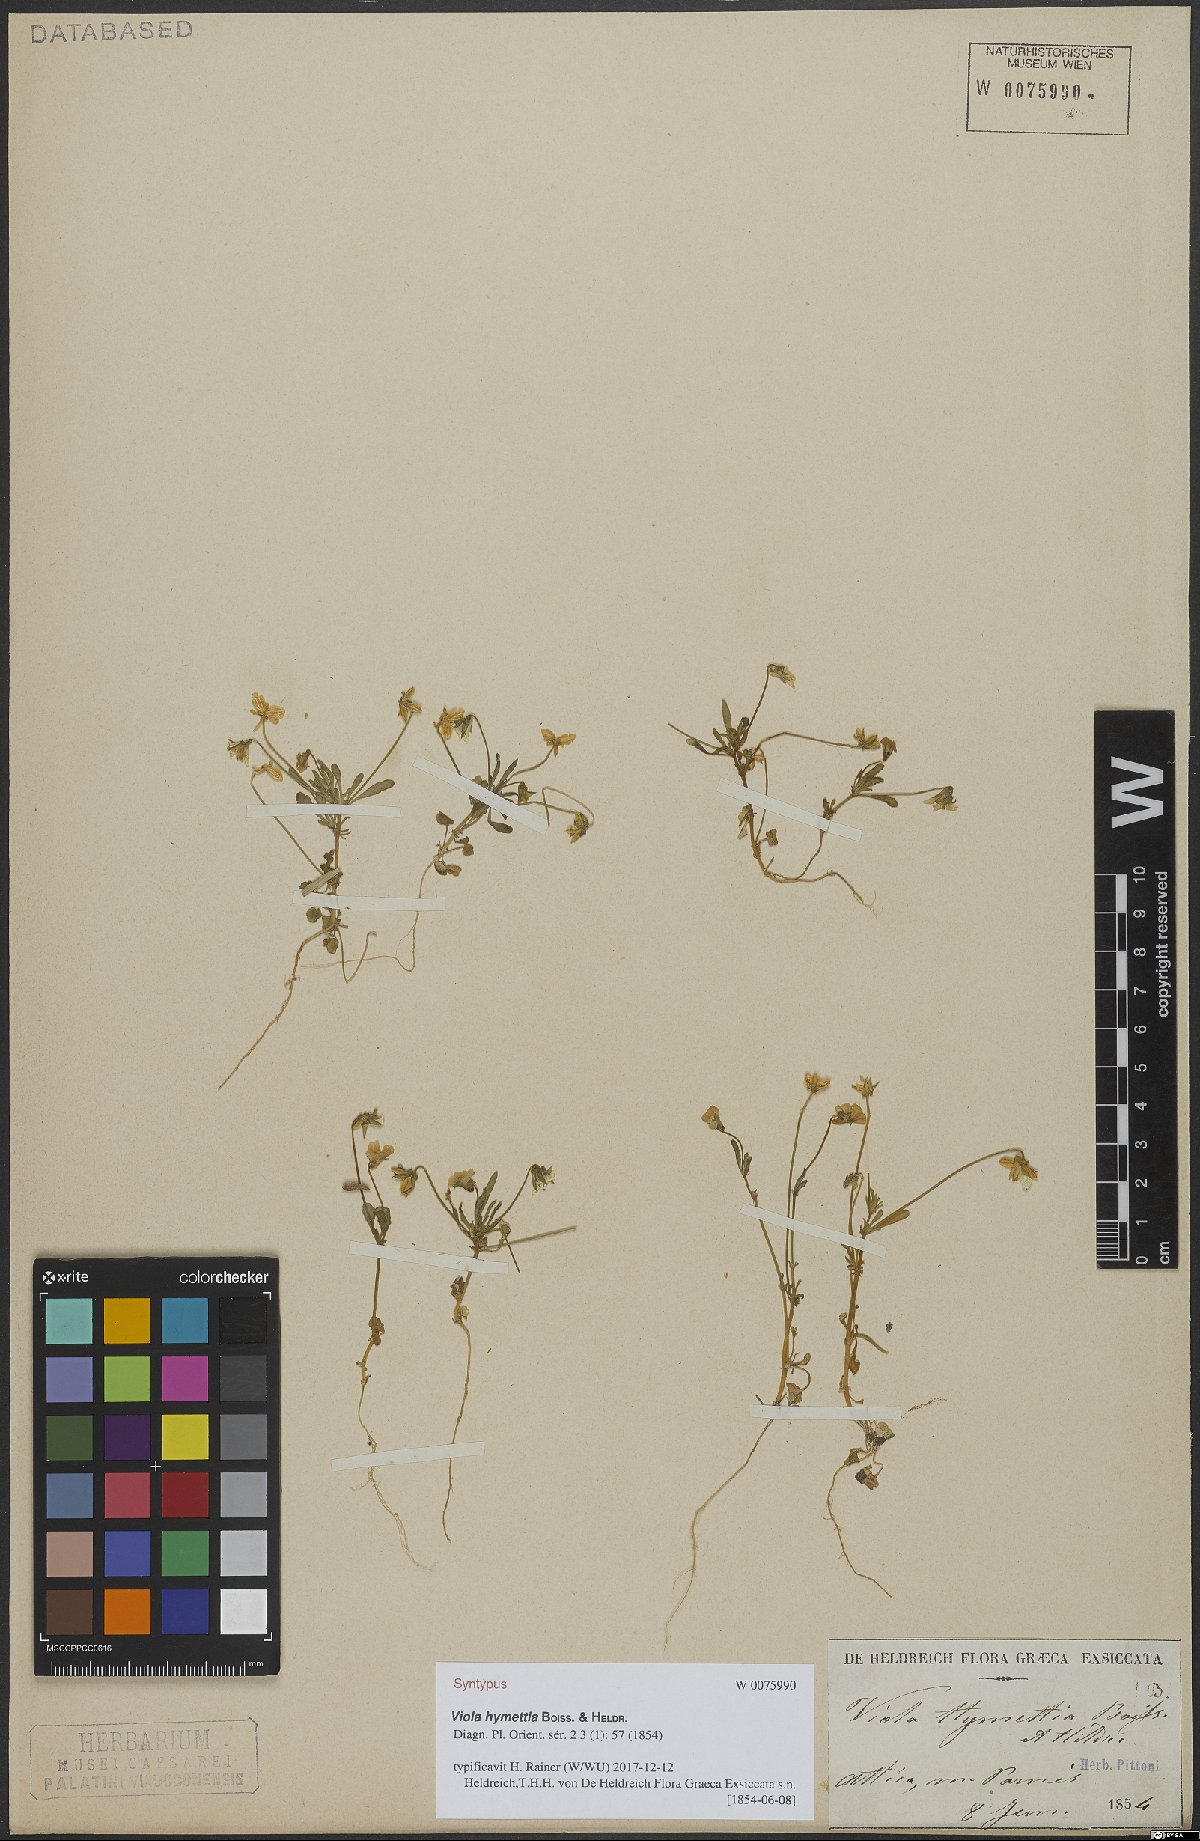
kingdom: Plantae
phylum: Tracheophyta
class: Magnoliopsida
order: Malpighiales
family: Violaceae
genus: Viola
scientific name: Viola hymettia
